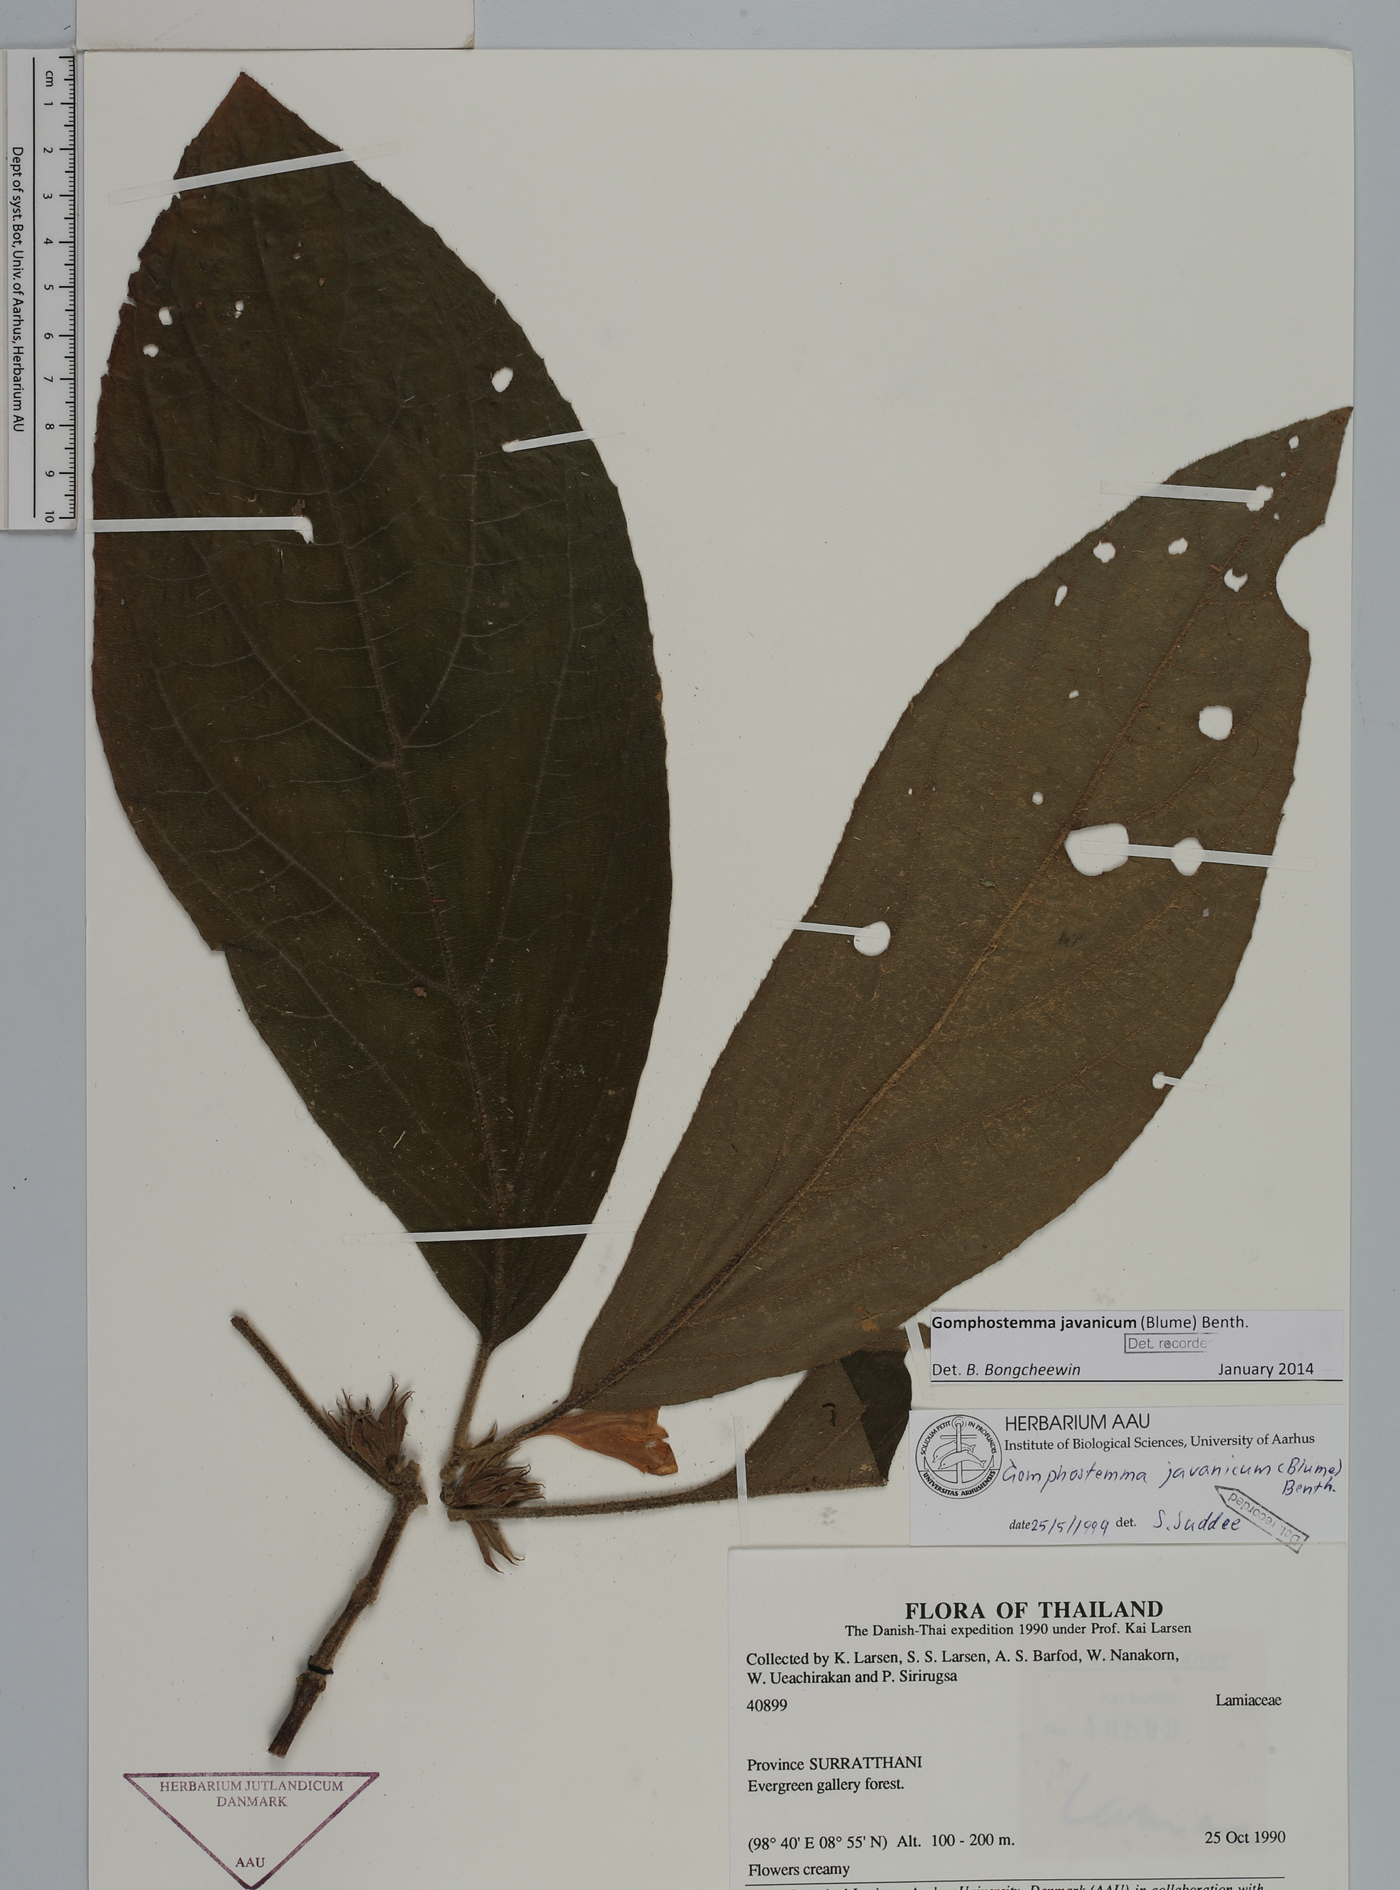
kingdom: Plantae
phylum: Tracheophyta
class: Magnoliopsida
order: Lamiales
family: Lamiaceae
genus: Gomphostemma
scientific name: Gomphostemma javanicum
